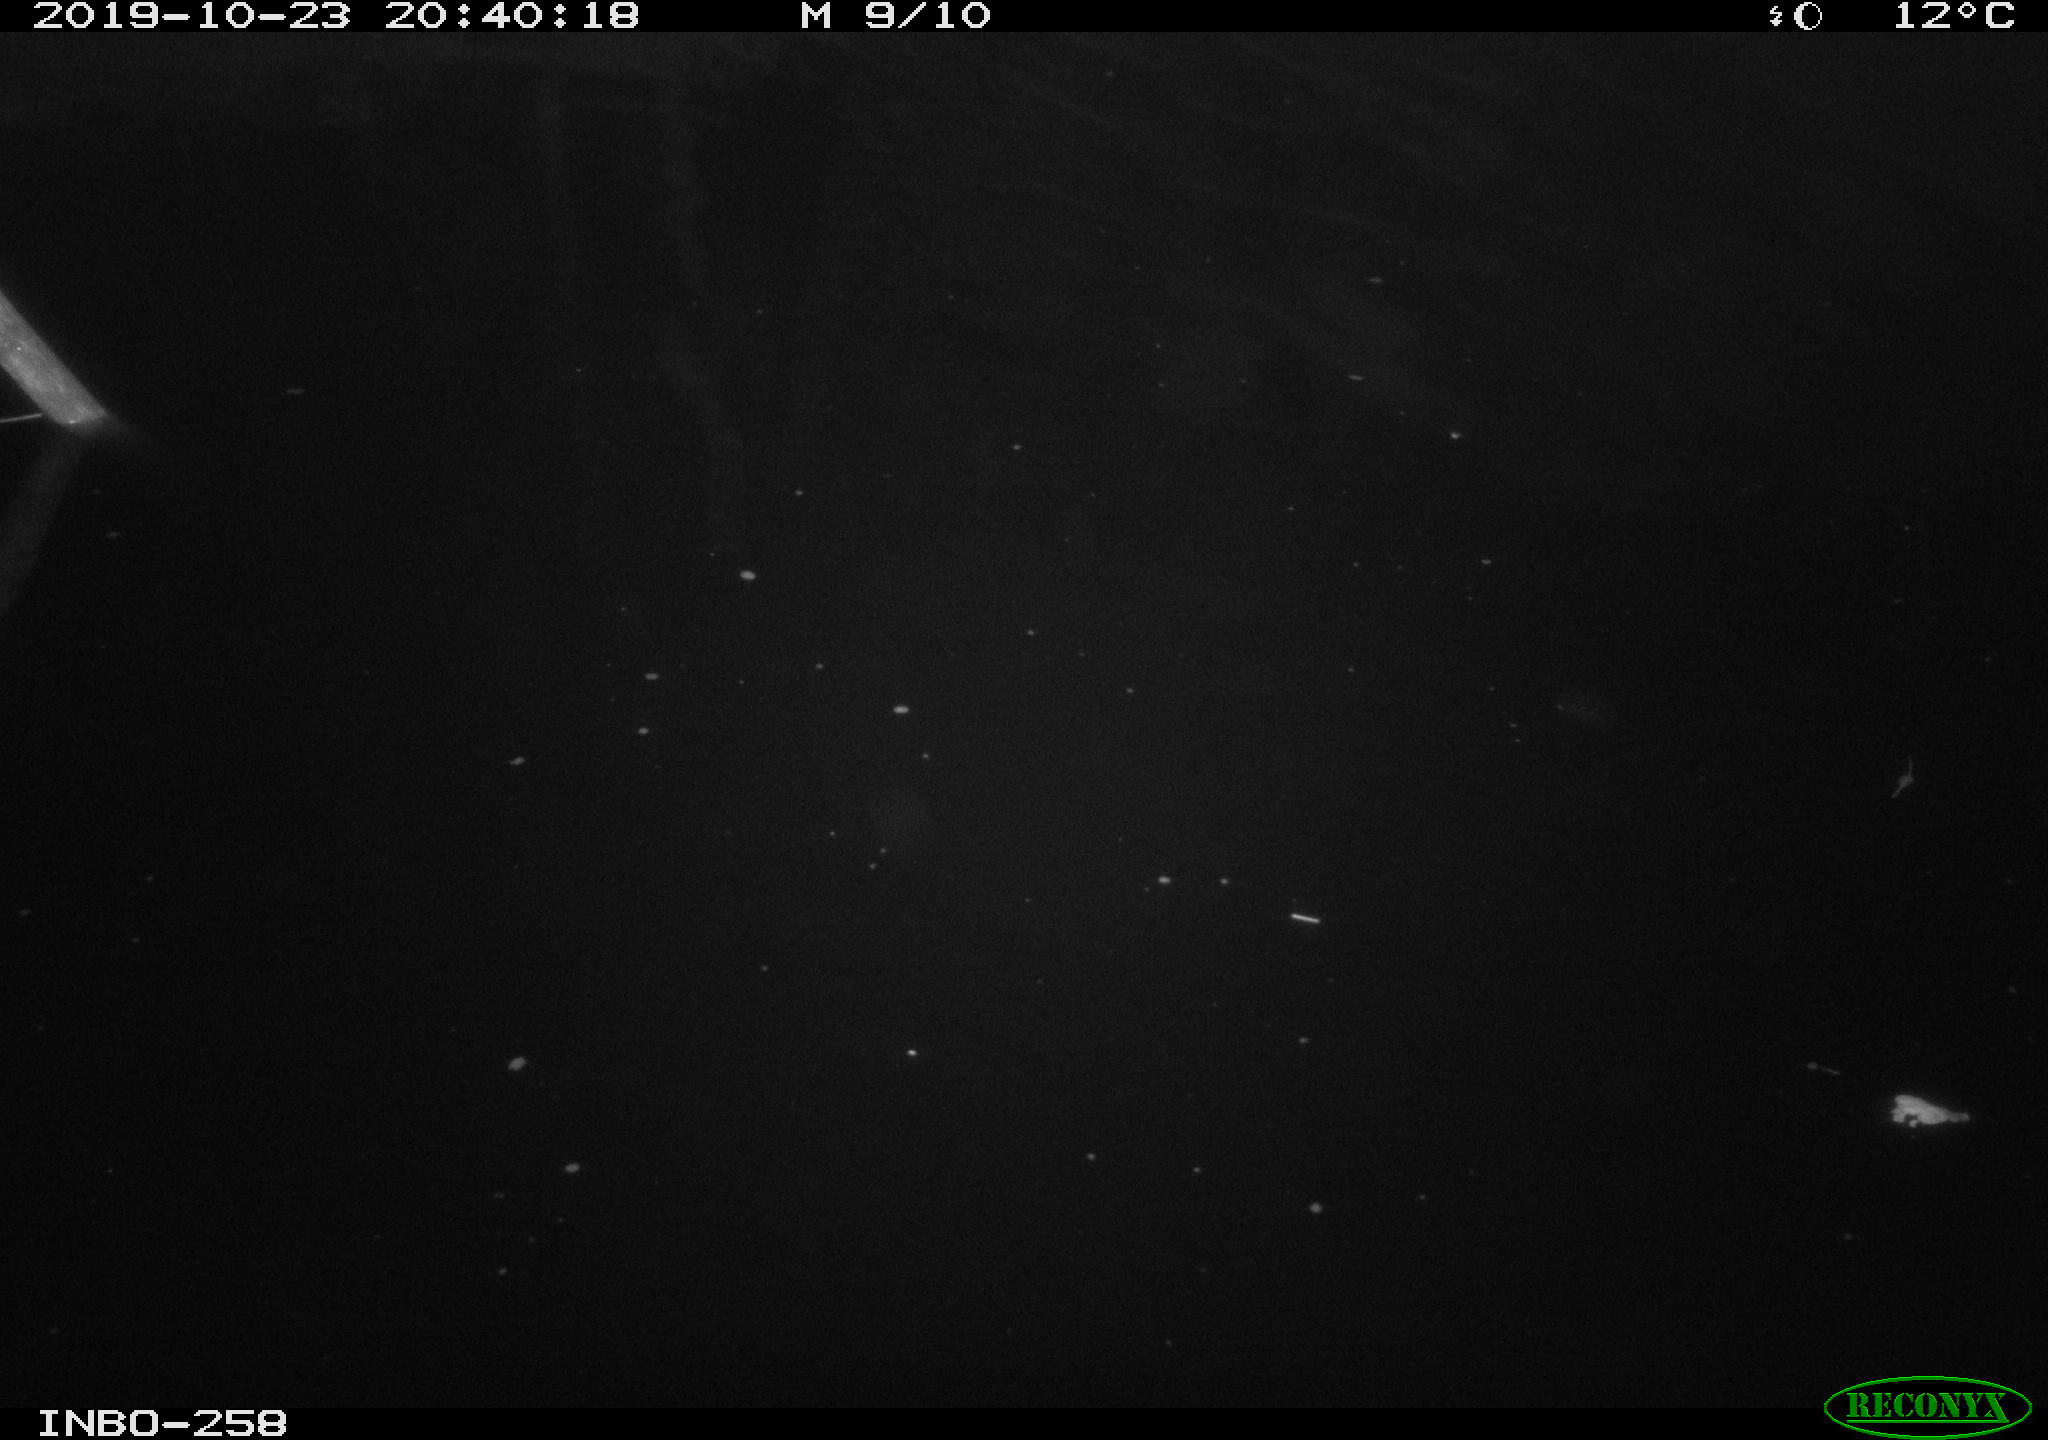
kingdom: Animalia
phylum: Chordata
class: Mammalia
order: Rodentia
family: Muridae
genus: Rattus
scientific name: Rattus norvegicus
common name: Brown rat
